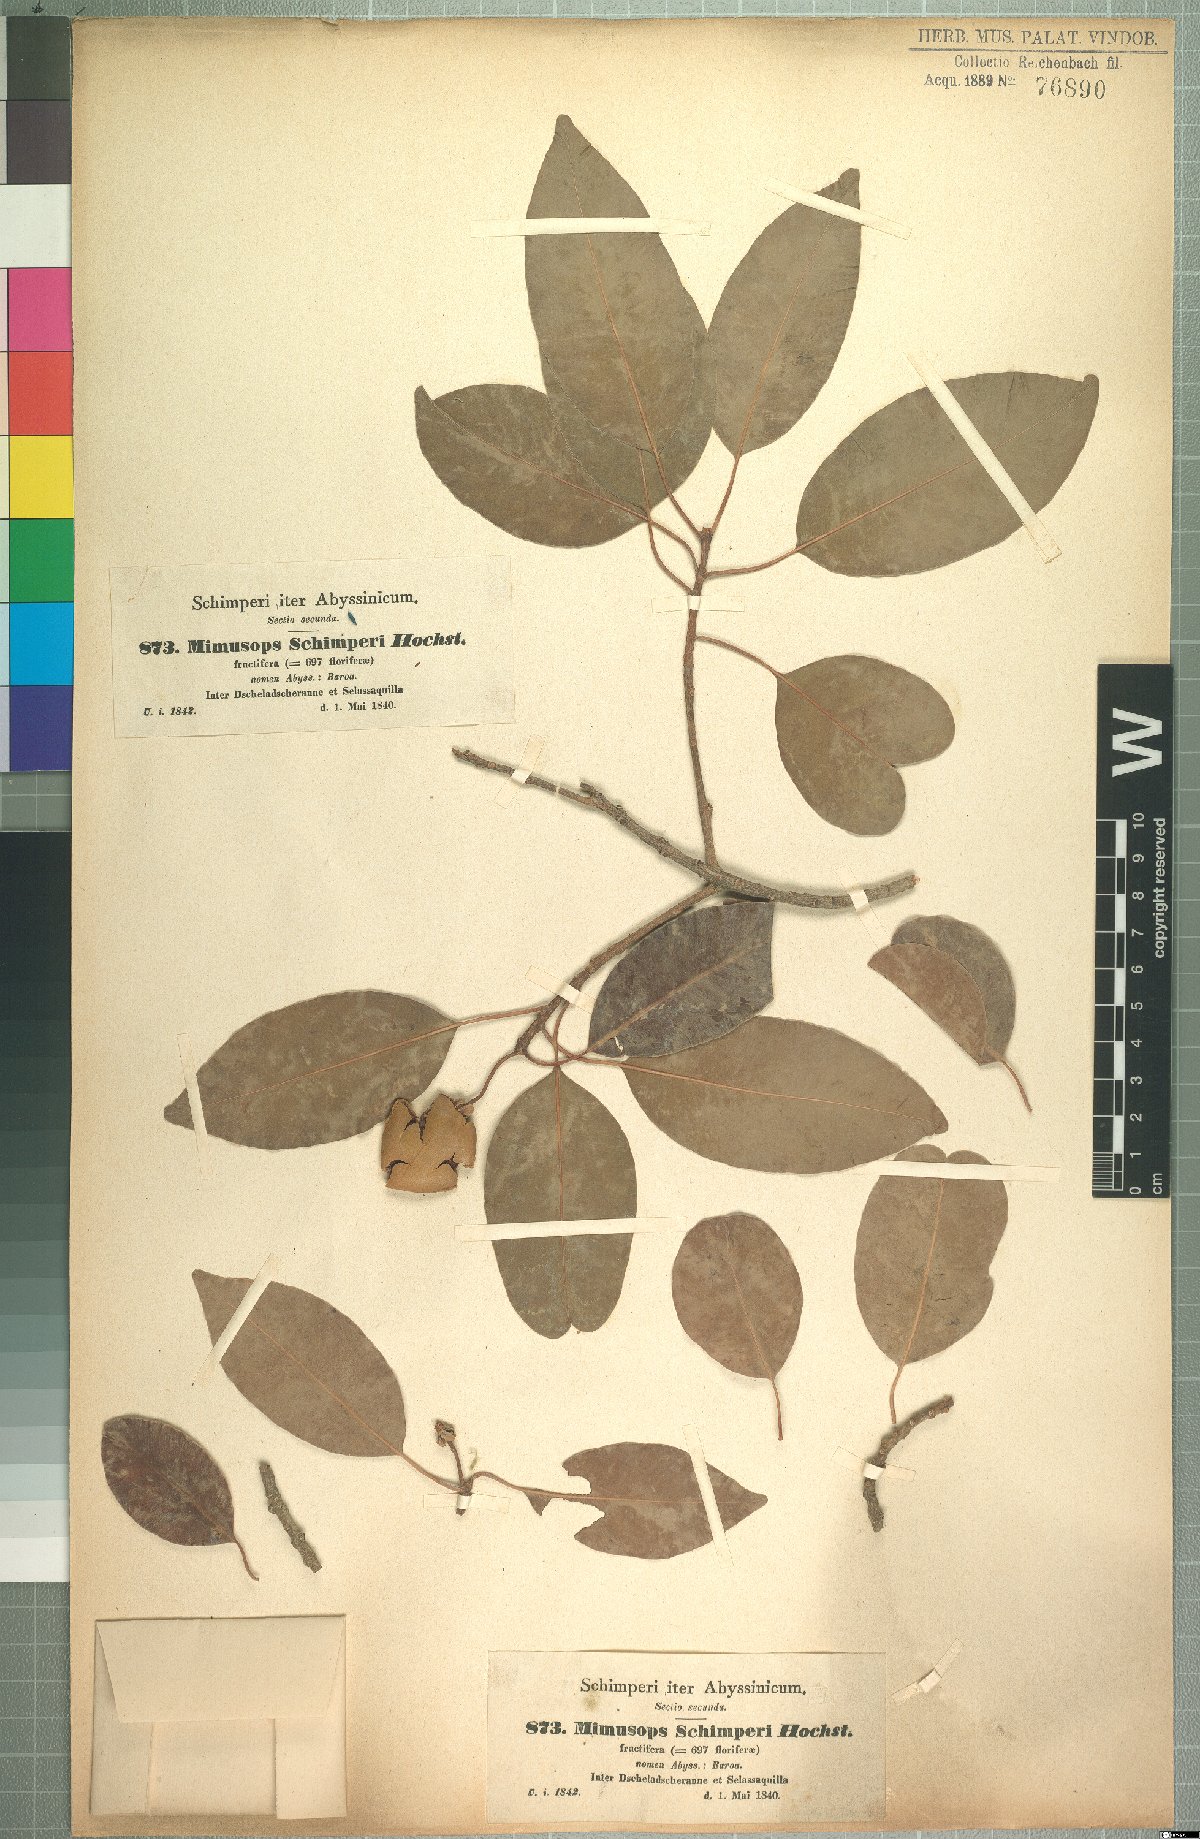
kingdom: Plantae
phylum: Tracheophyta
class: Magnoliopsida
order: Ericales
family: Sapotaceae
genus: Mimusops
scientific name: Mimusops laurifolia
